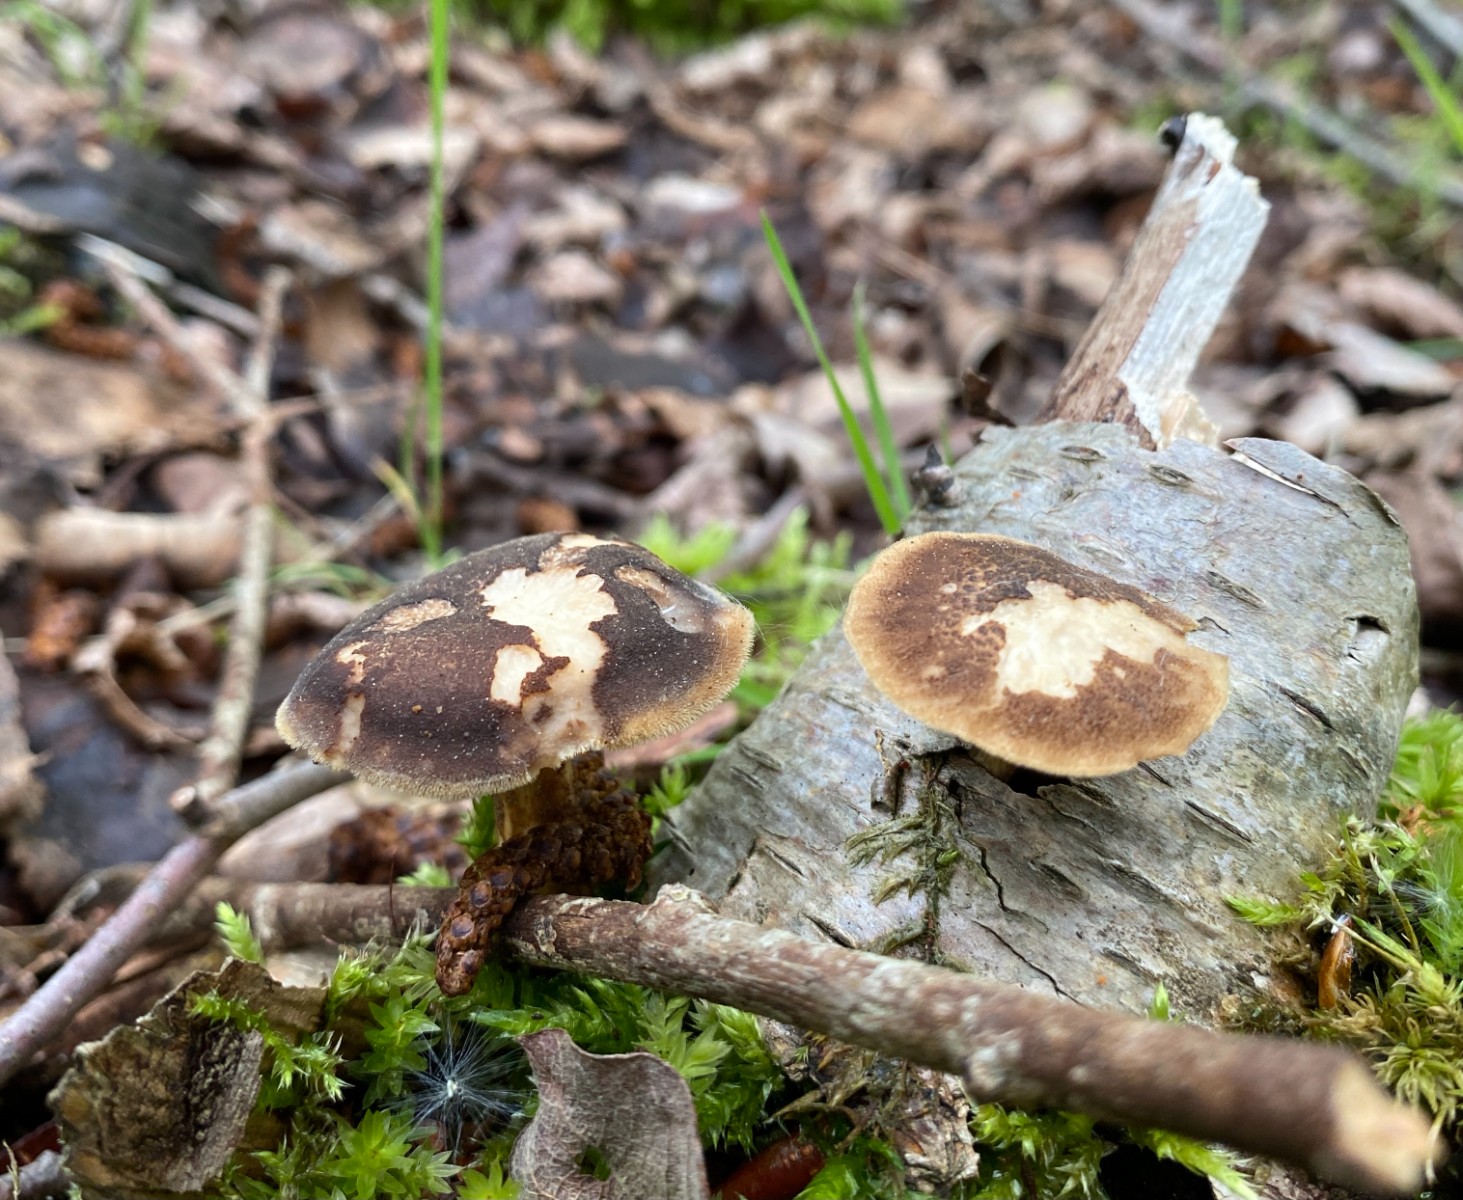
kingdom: Fungi
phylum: Basidiomycota
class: Agaricomycetes
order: Polyporales
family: Polyporaceae
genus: Lentinus
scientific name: Lentinus substrictus
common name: forårs-stilkporesvamp
